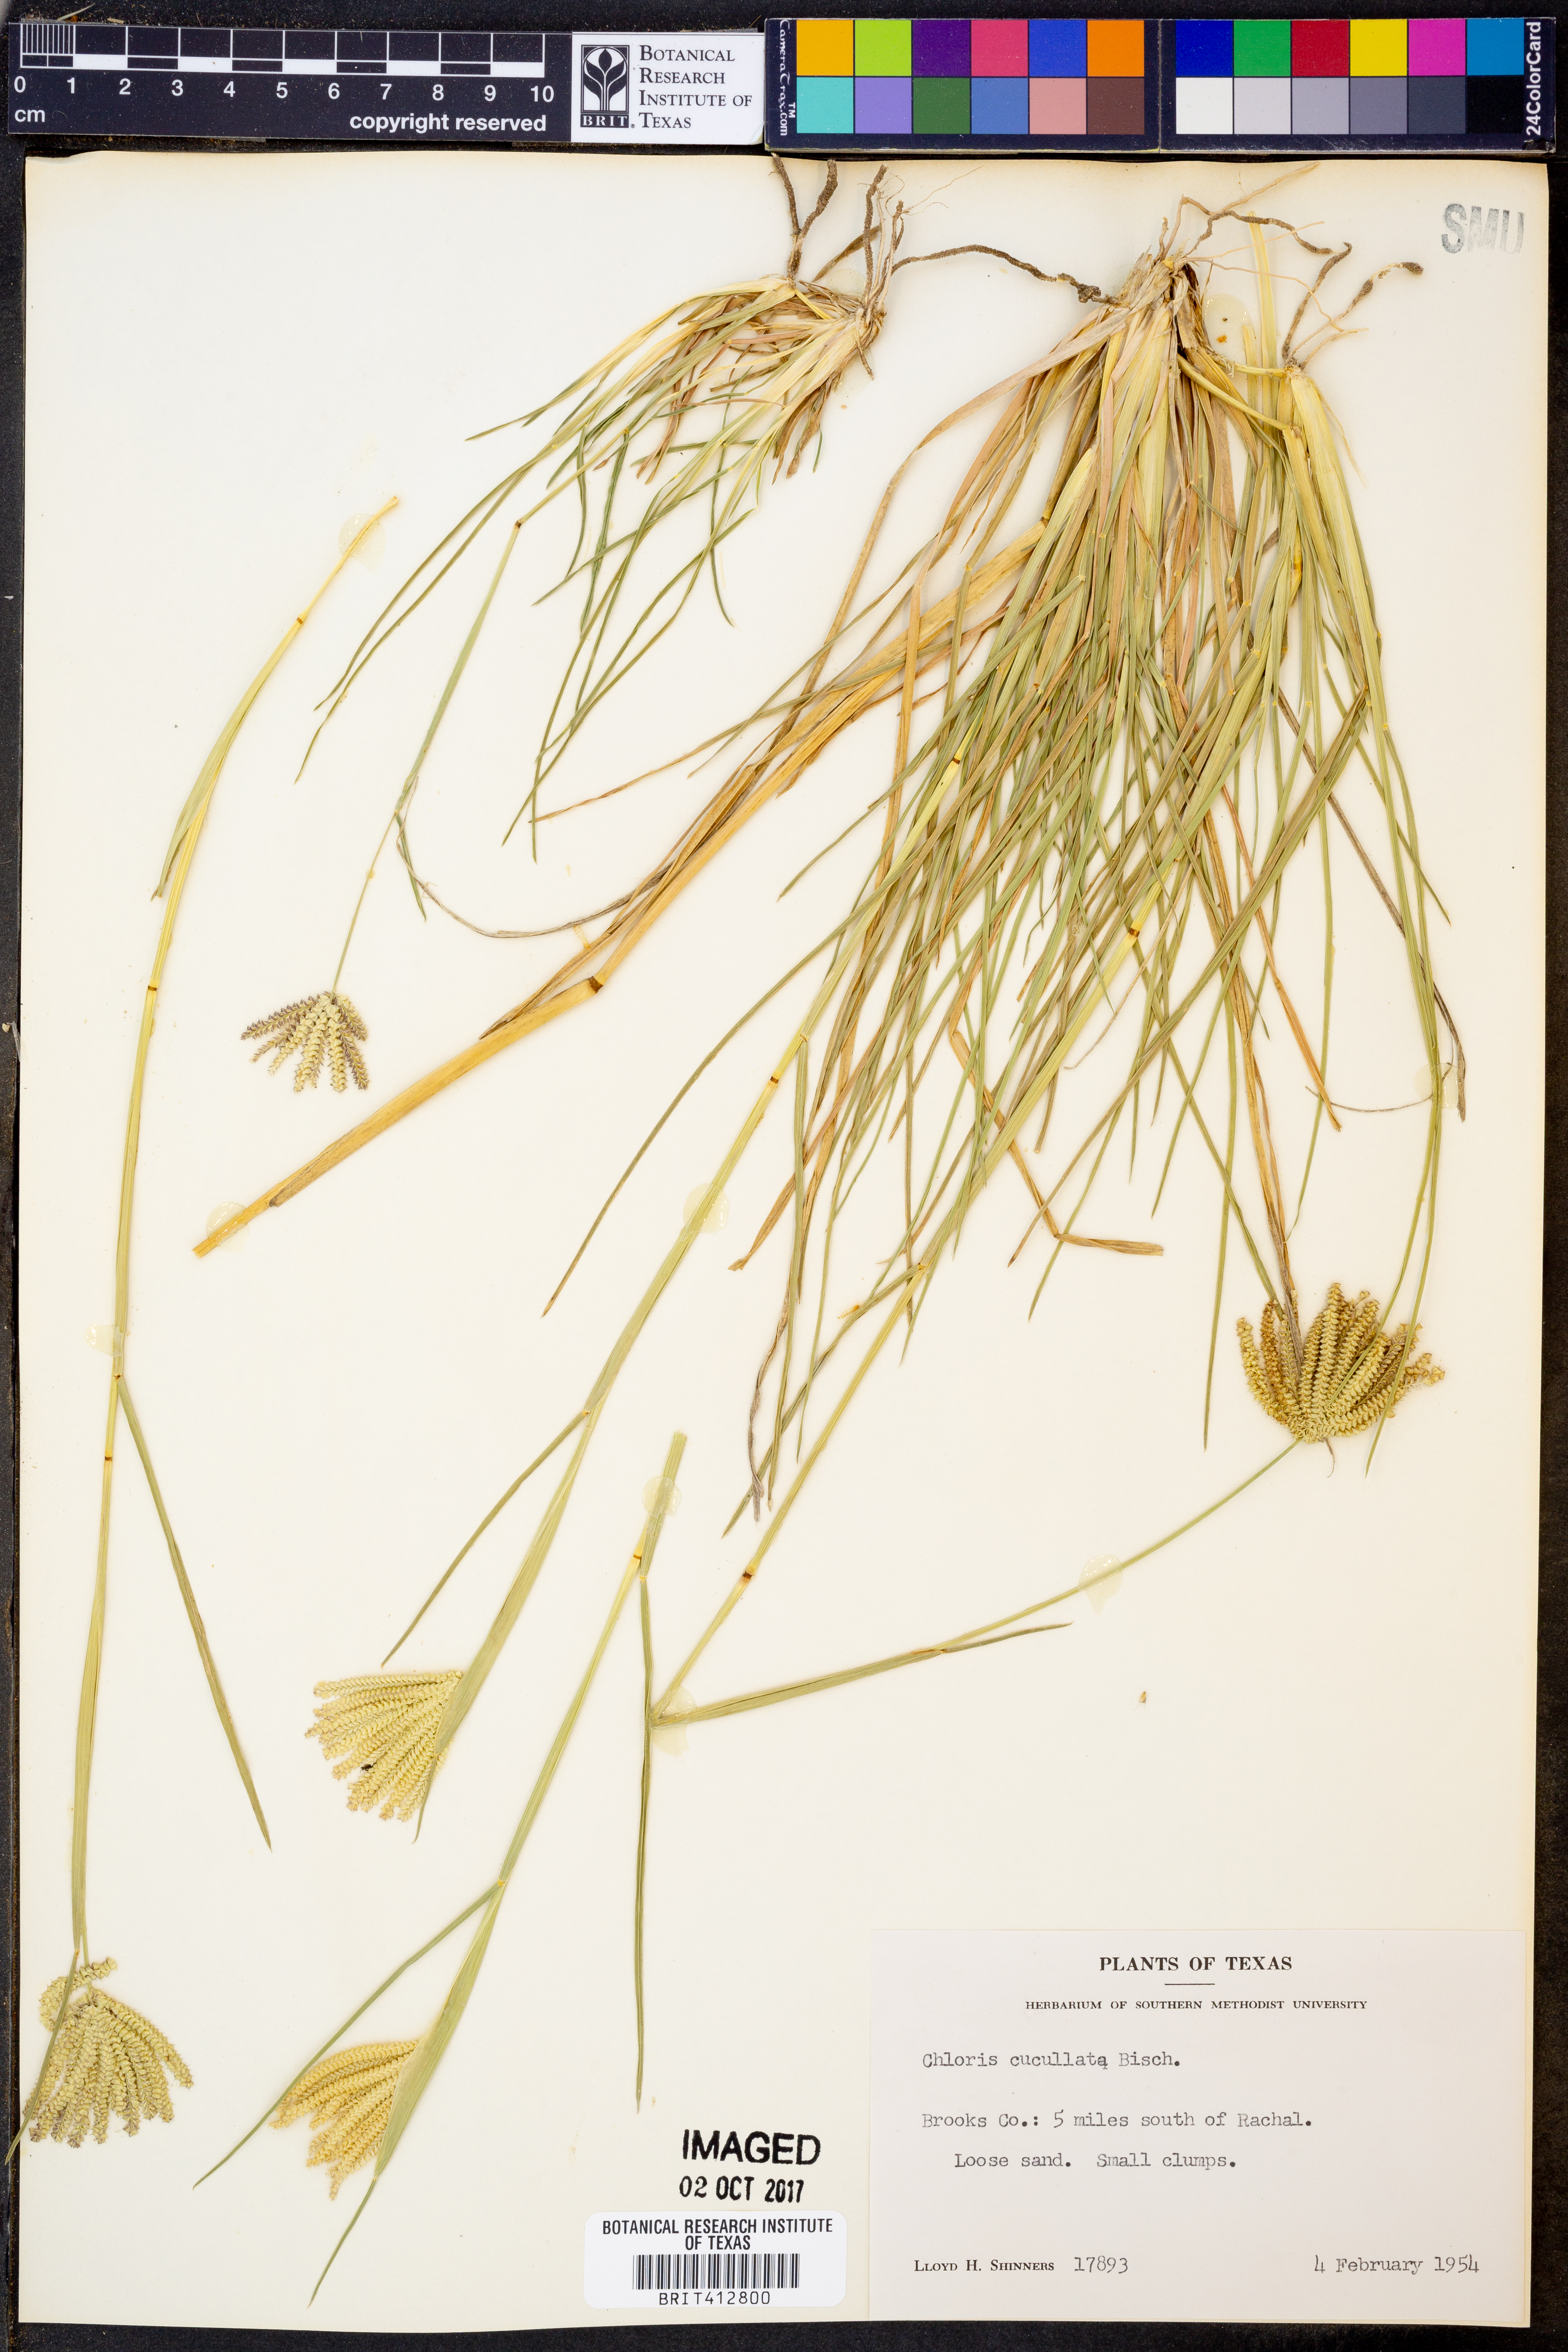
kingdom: Plantae
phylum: Tracheophyta
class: Liliopsida
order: Poales
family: Poaceae
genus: Chloris
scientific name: Chloris cucullata
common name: Hooded windmill grass
